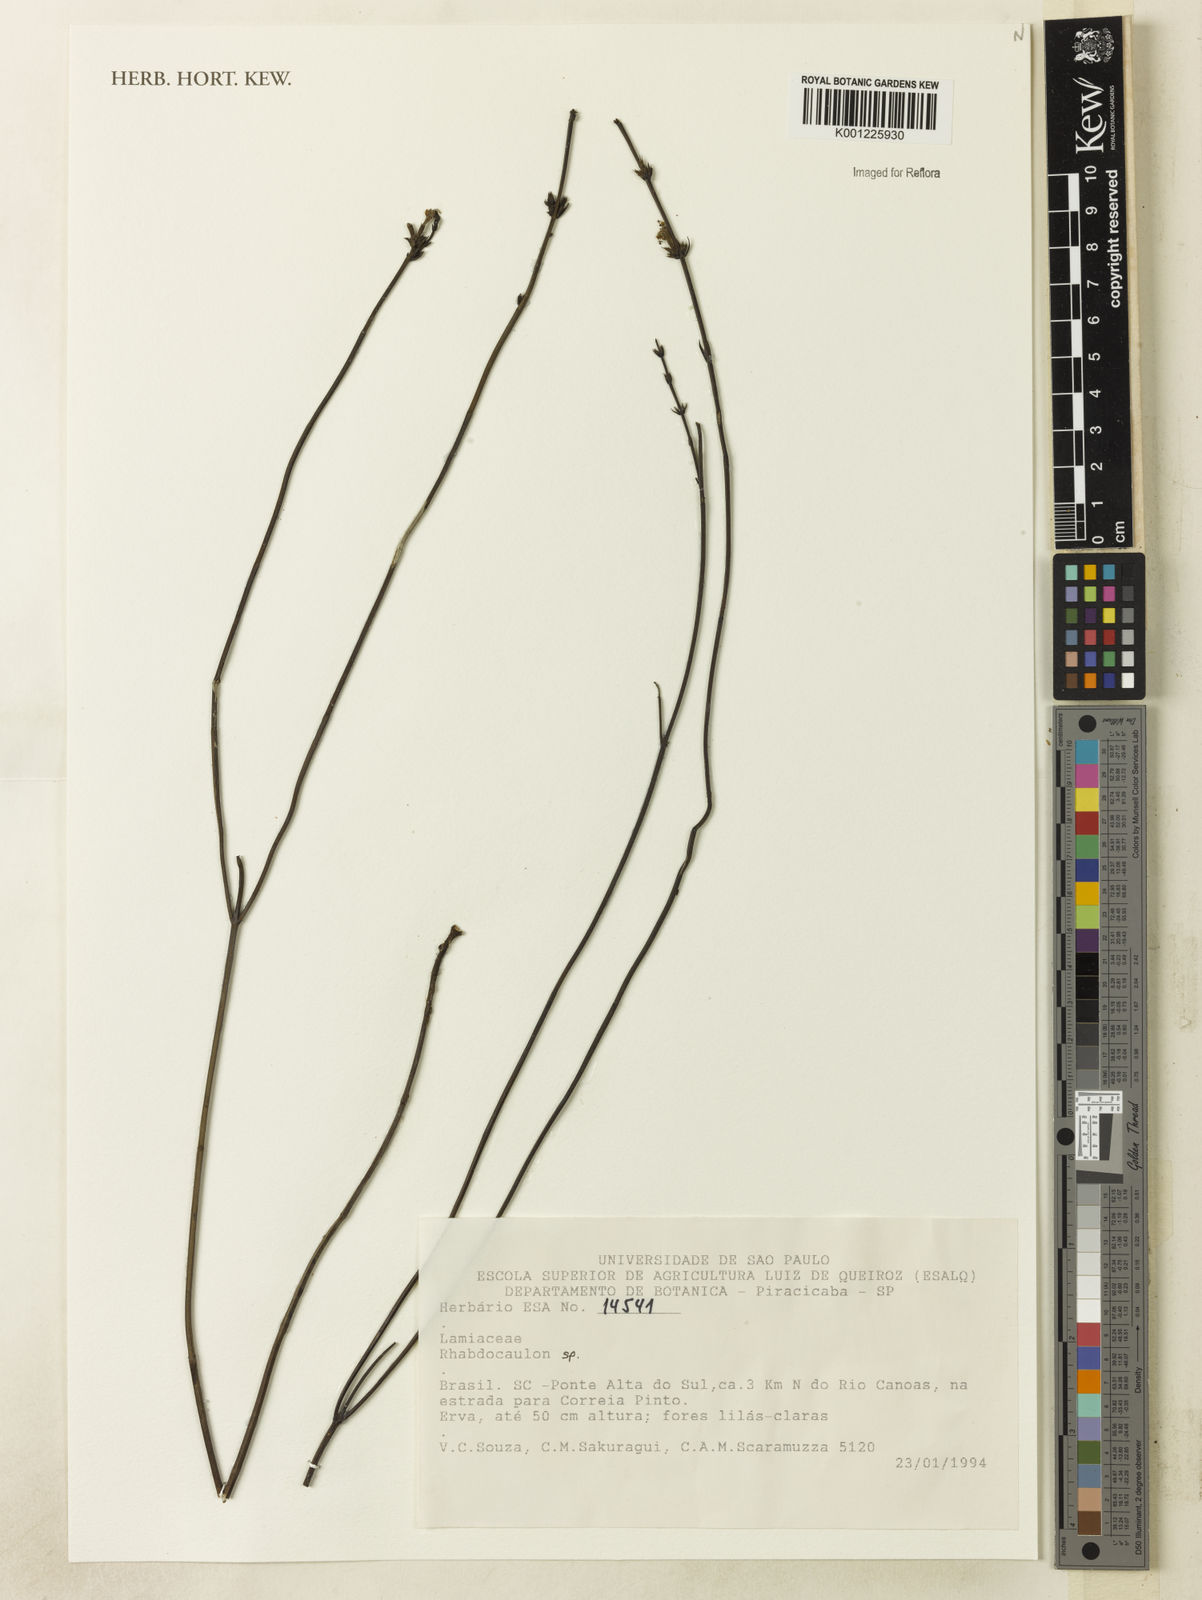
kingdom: Plantae
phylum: Tracheophyta
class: Magnoliopsida
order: Lamiales
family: Lamiaceae
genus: Rhabdocaulon
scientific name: Rhabdocaulon
